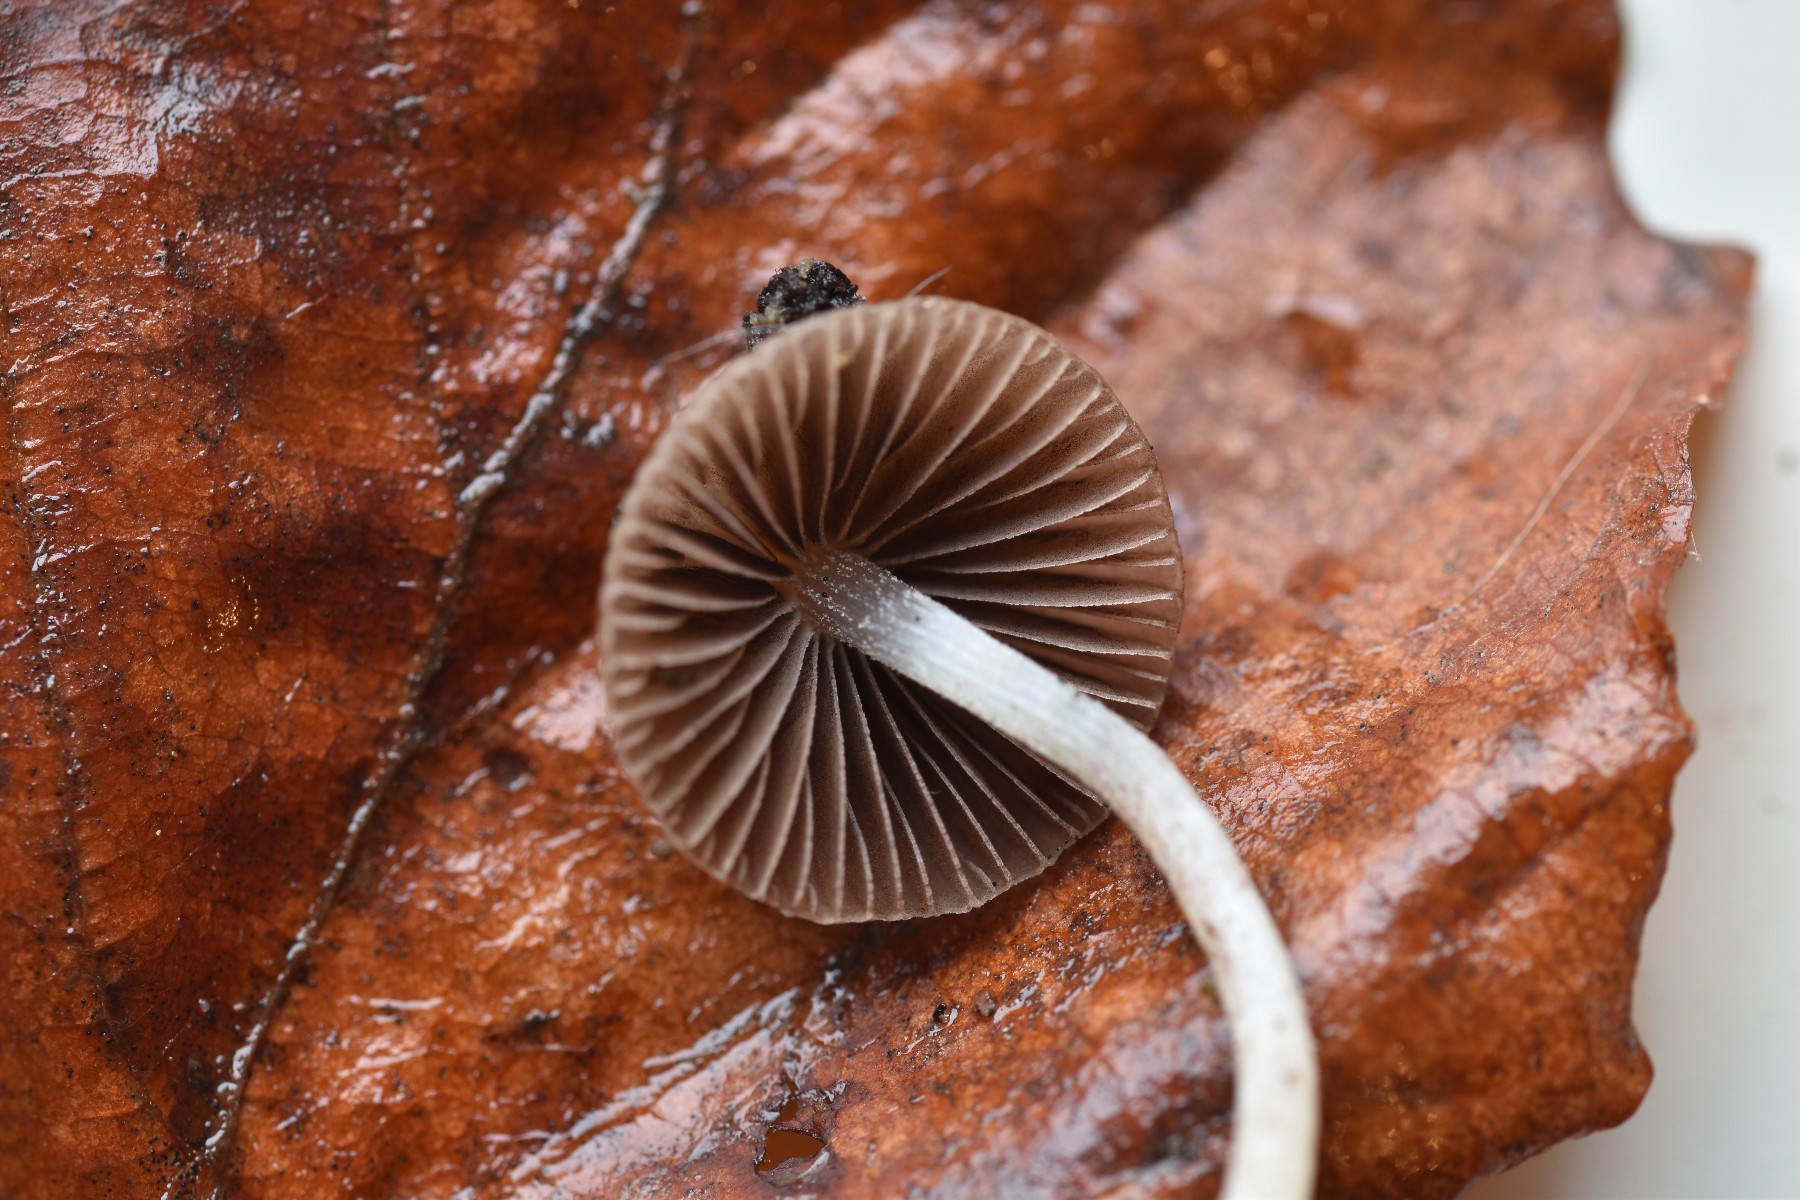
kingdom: Fungi
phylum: Basidiomycota
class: Agaricomycetes
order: Agaricales
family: Psathyrellaceae
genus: Psathyrella
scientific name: Psathyrella
